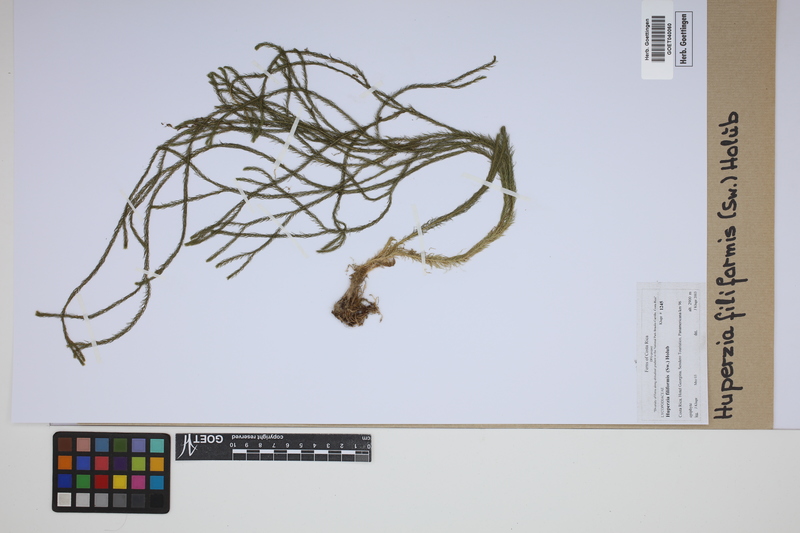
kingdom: Plantae
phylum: Tracheophyta
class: Lycopodiopsida
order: Lycopodiales
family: Lycopodiaceae
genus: Phlegmariurus
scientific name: Phlegmariurus filiformis
